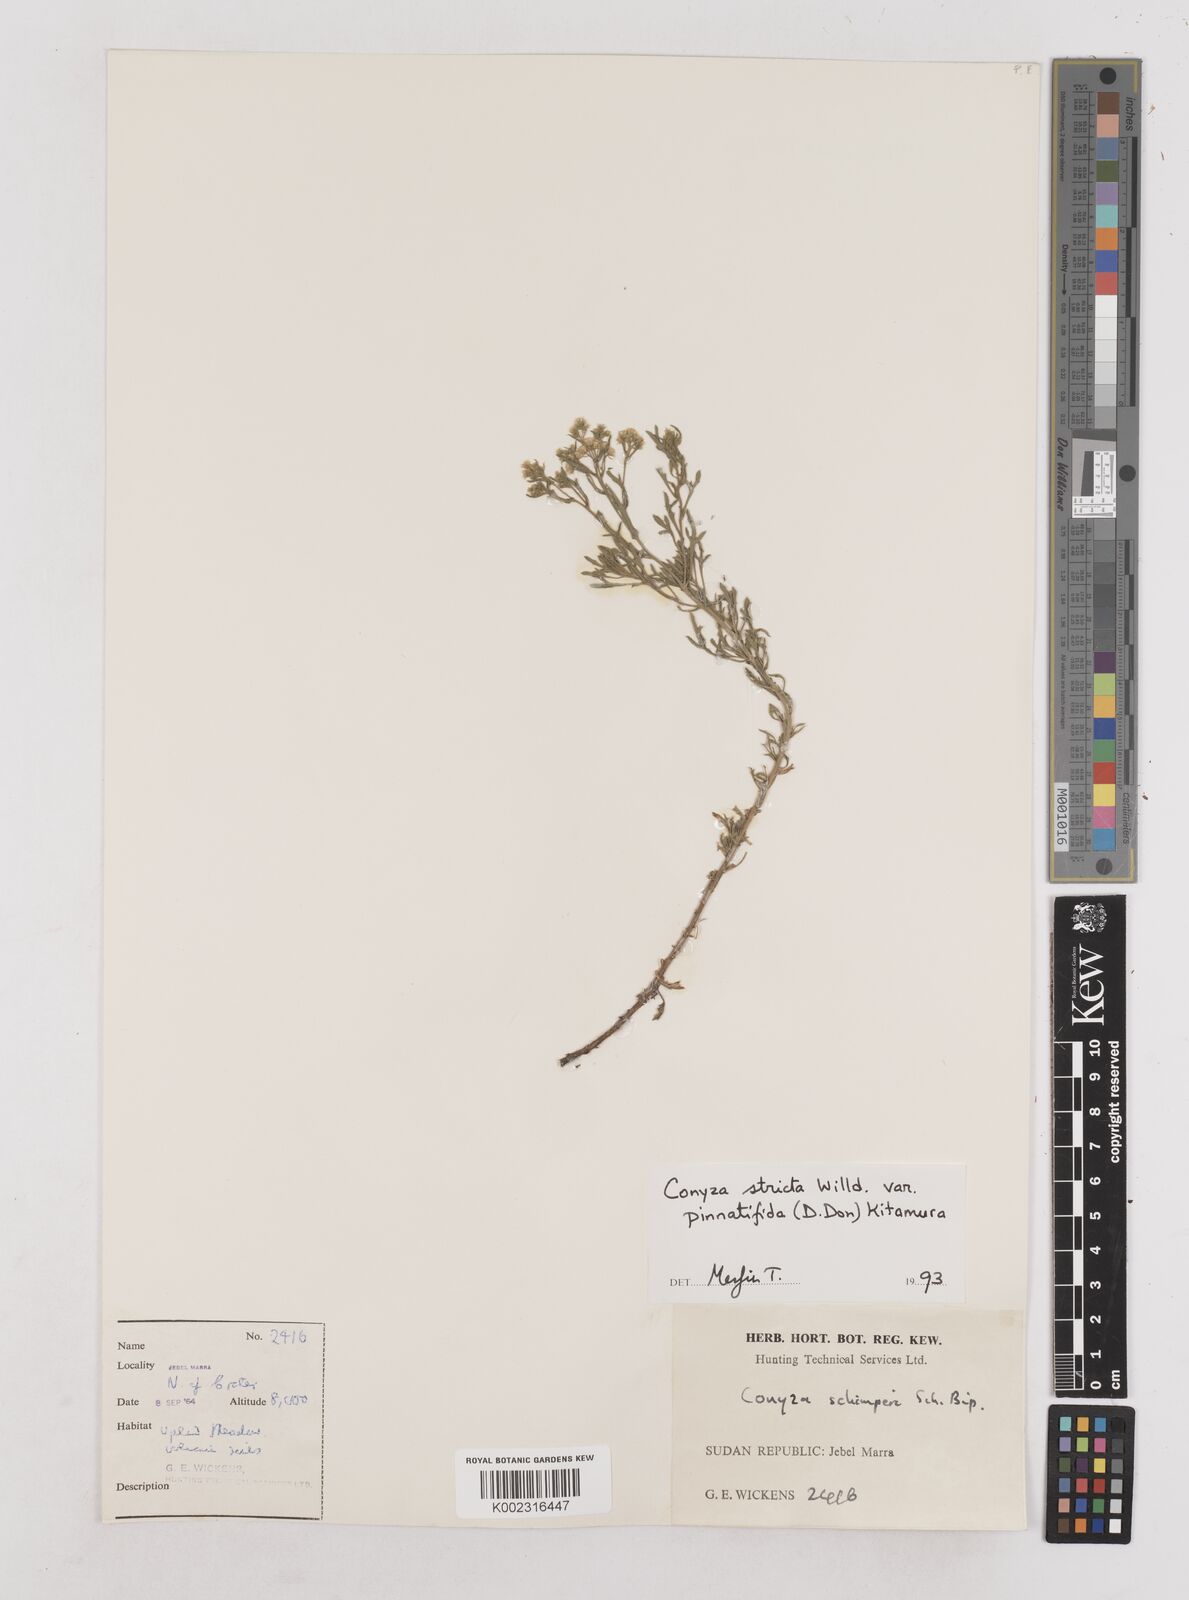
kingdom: Plantae
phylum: Tracheophyta
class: Magnoliopsida
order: Asterales
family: Asteraceae
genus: Nidorella
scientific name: Nidorella triloba
